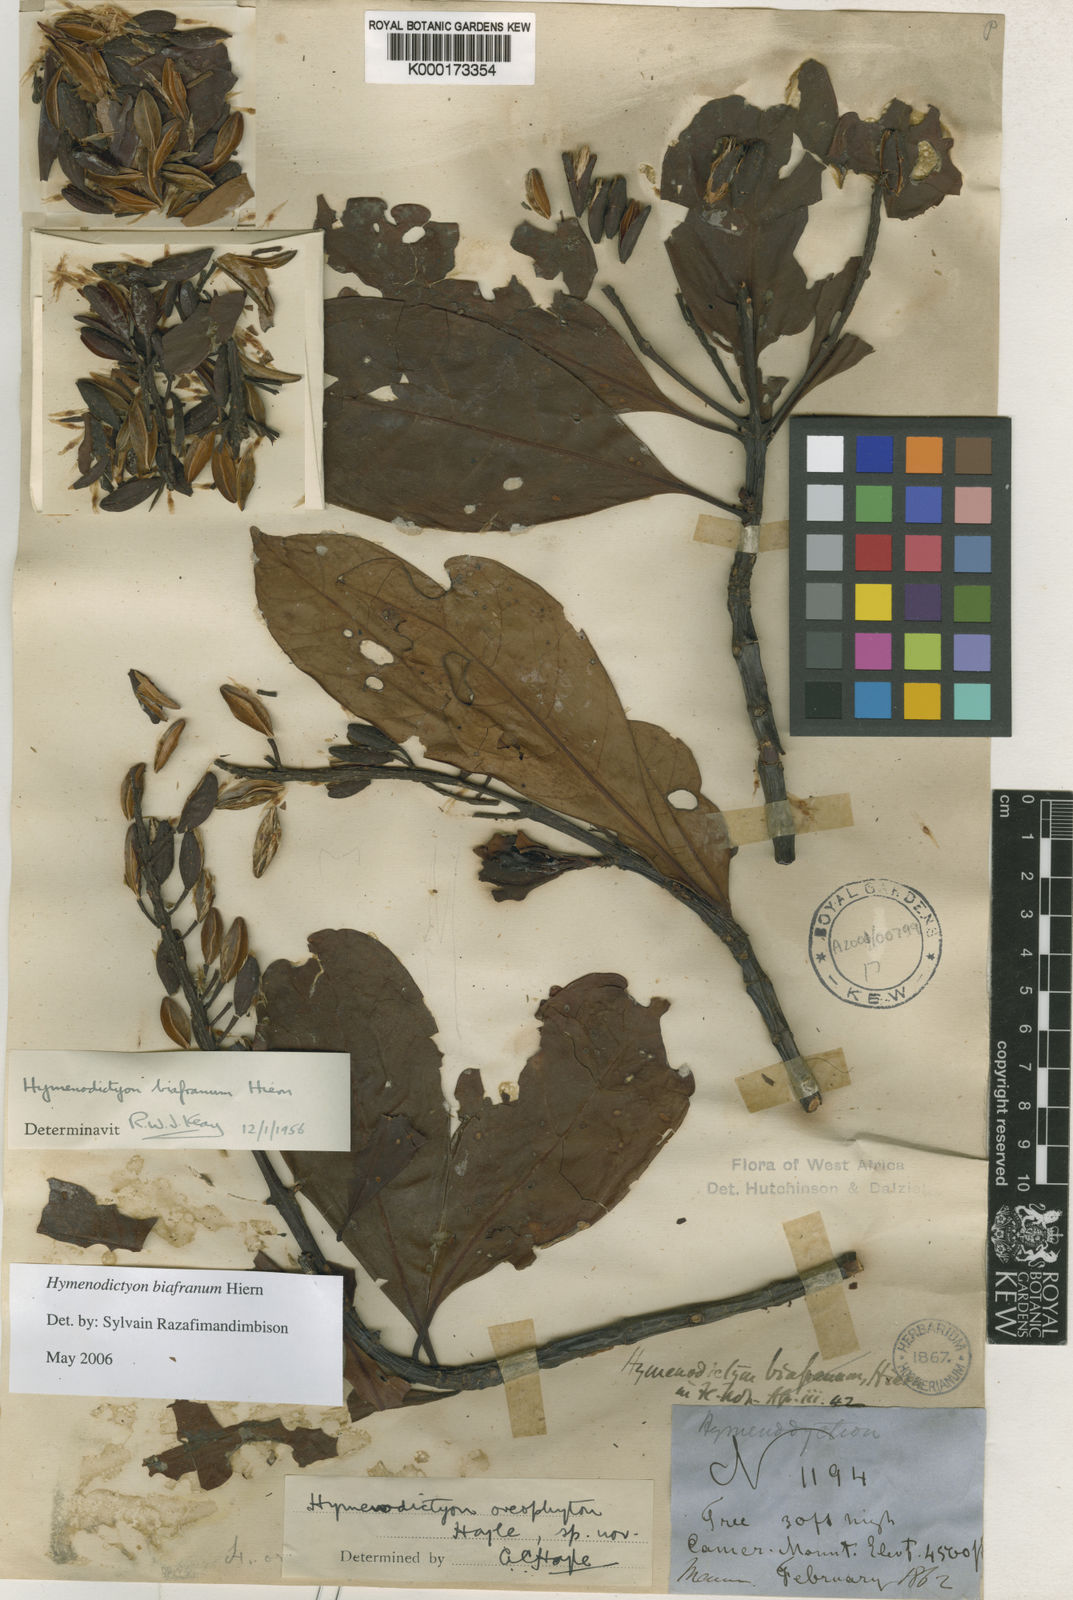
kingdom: Plantae
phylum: Tracheophyta
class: Magnoliopsida
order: Gentianales
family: Rubiaceae
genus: Hymenodictyon
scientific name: Hymenodictyon biafranum
